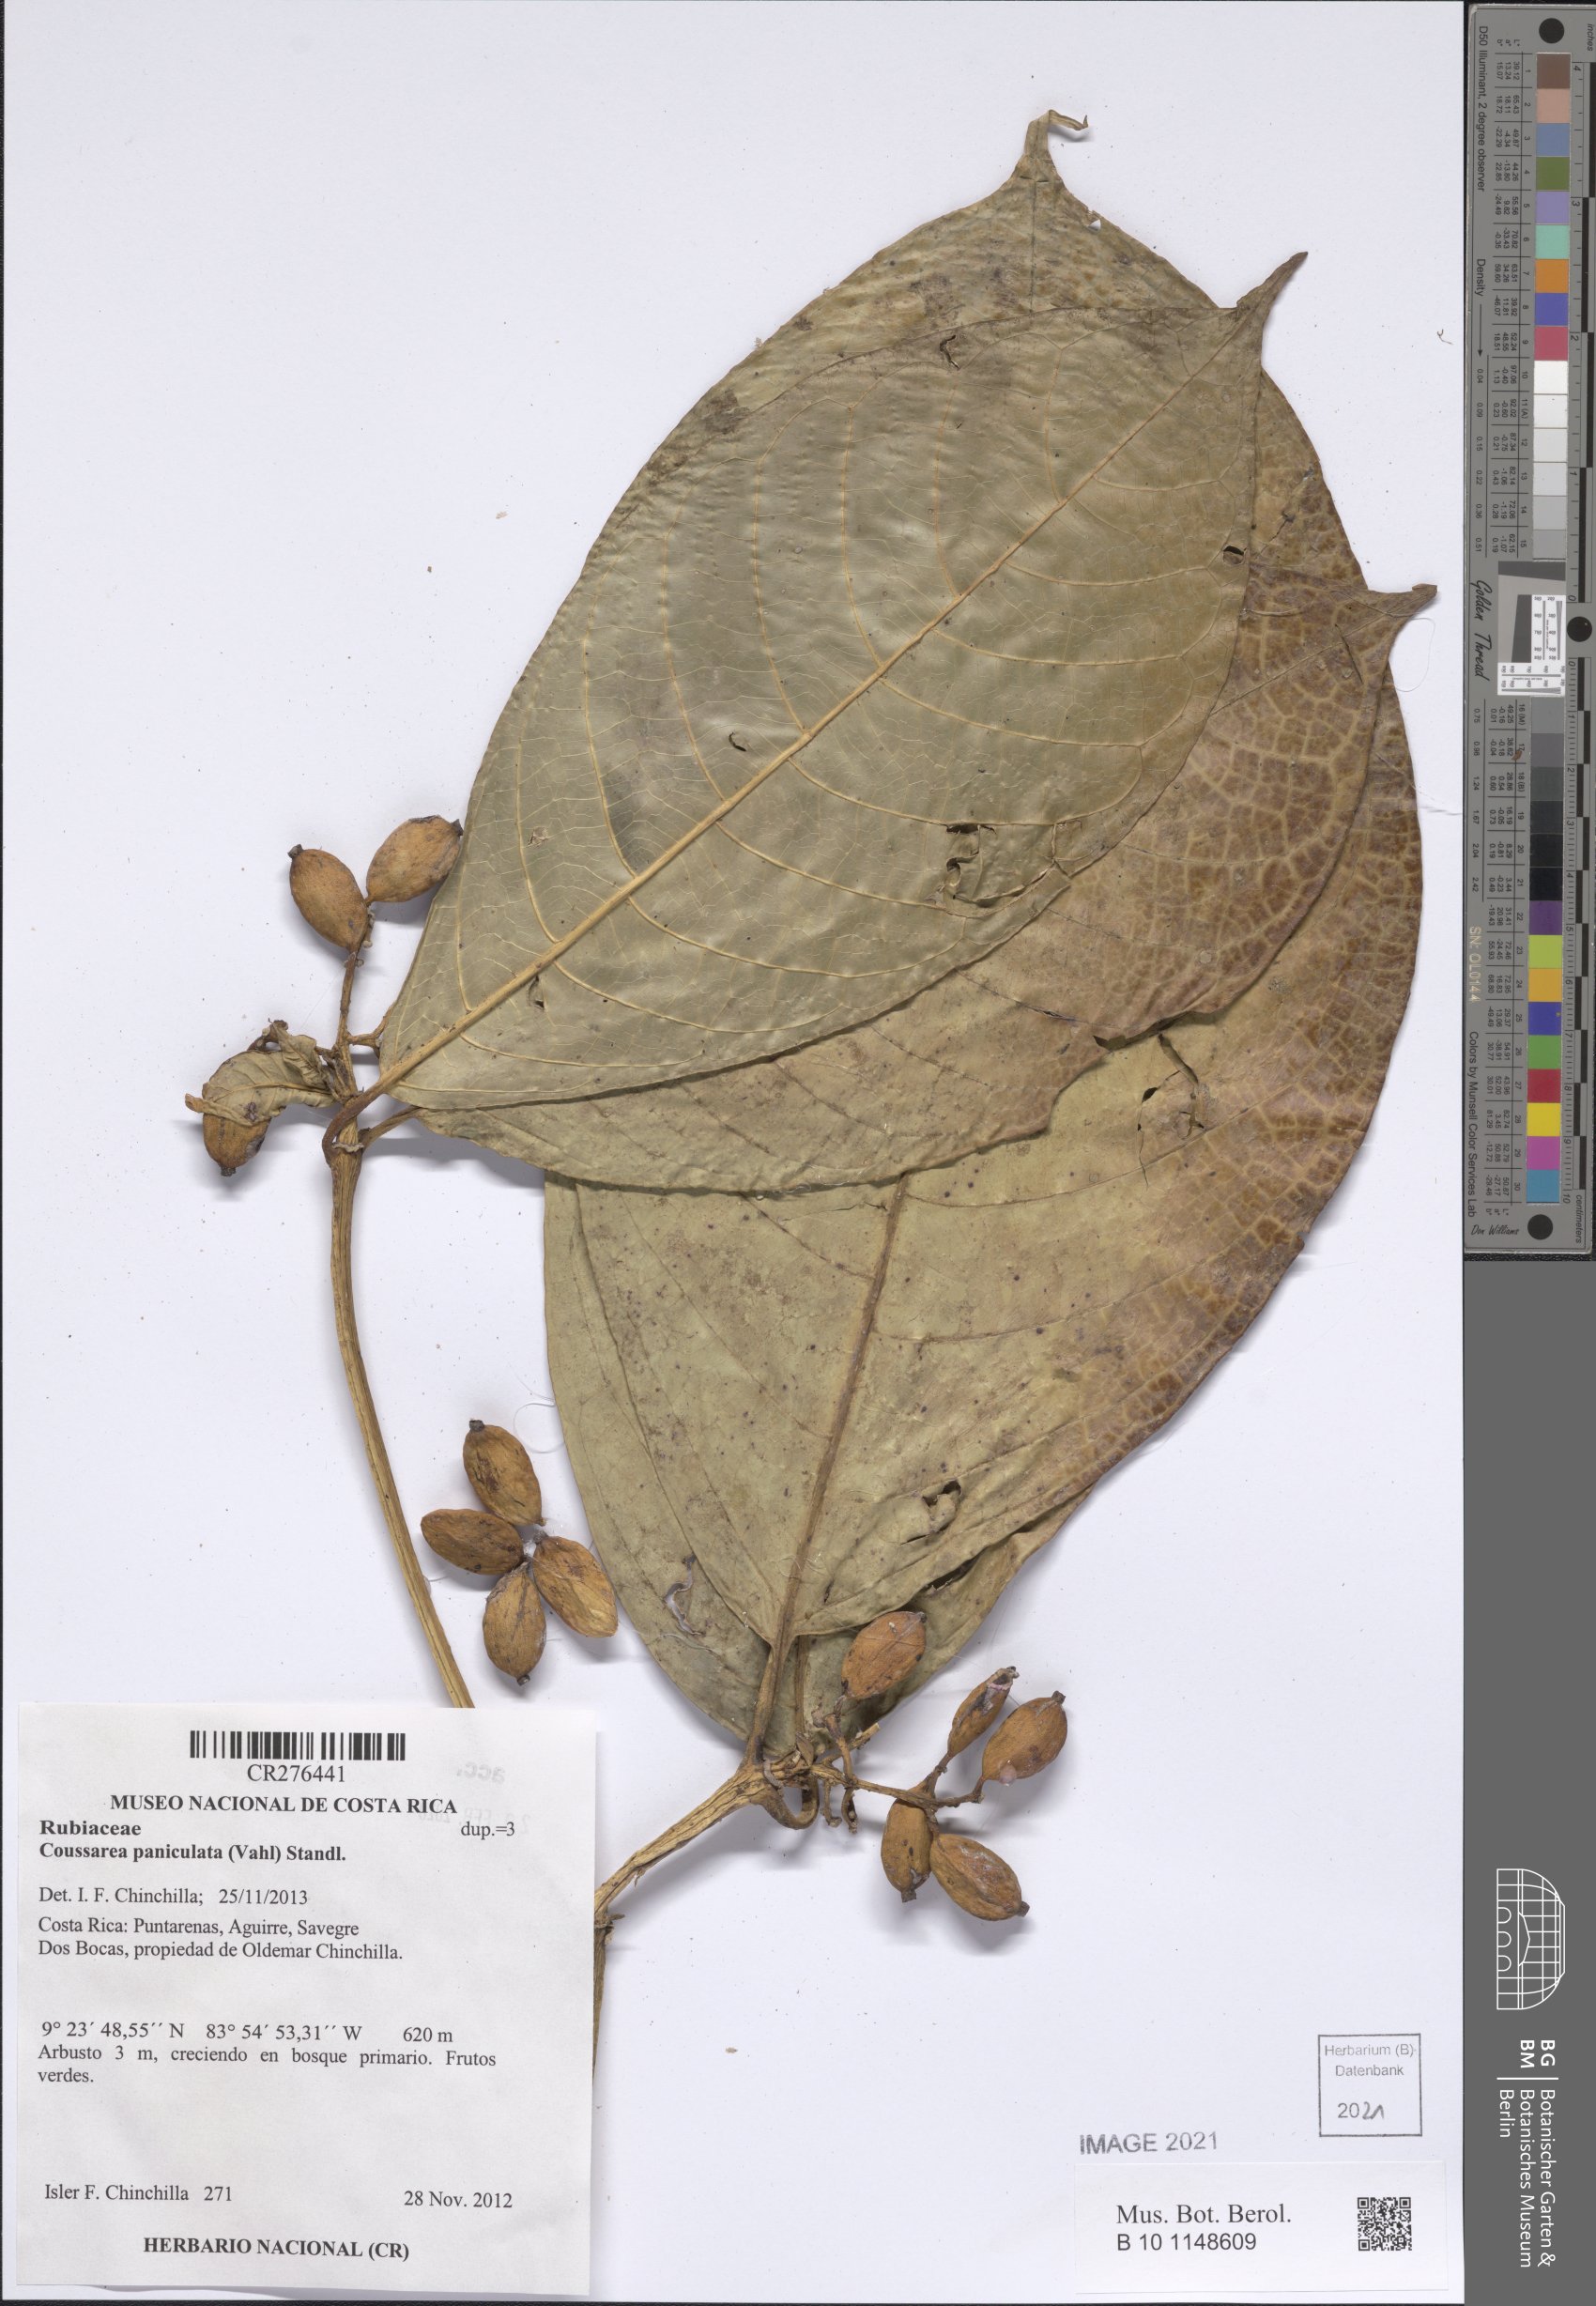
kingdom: Plantae
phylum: Tracheophyta
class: Magnoliopsida
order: Gentianales
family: Rubiaceae
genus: Coussarea
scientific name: Coussarea paniculata
